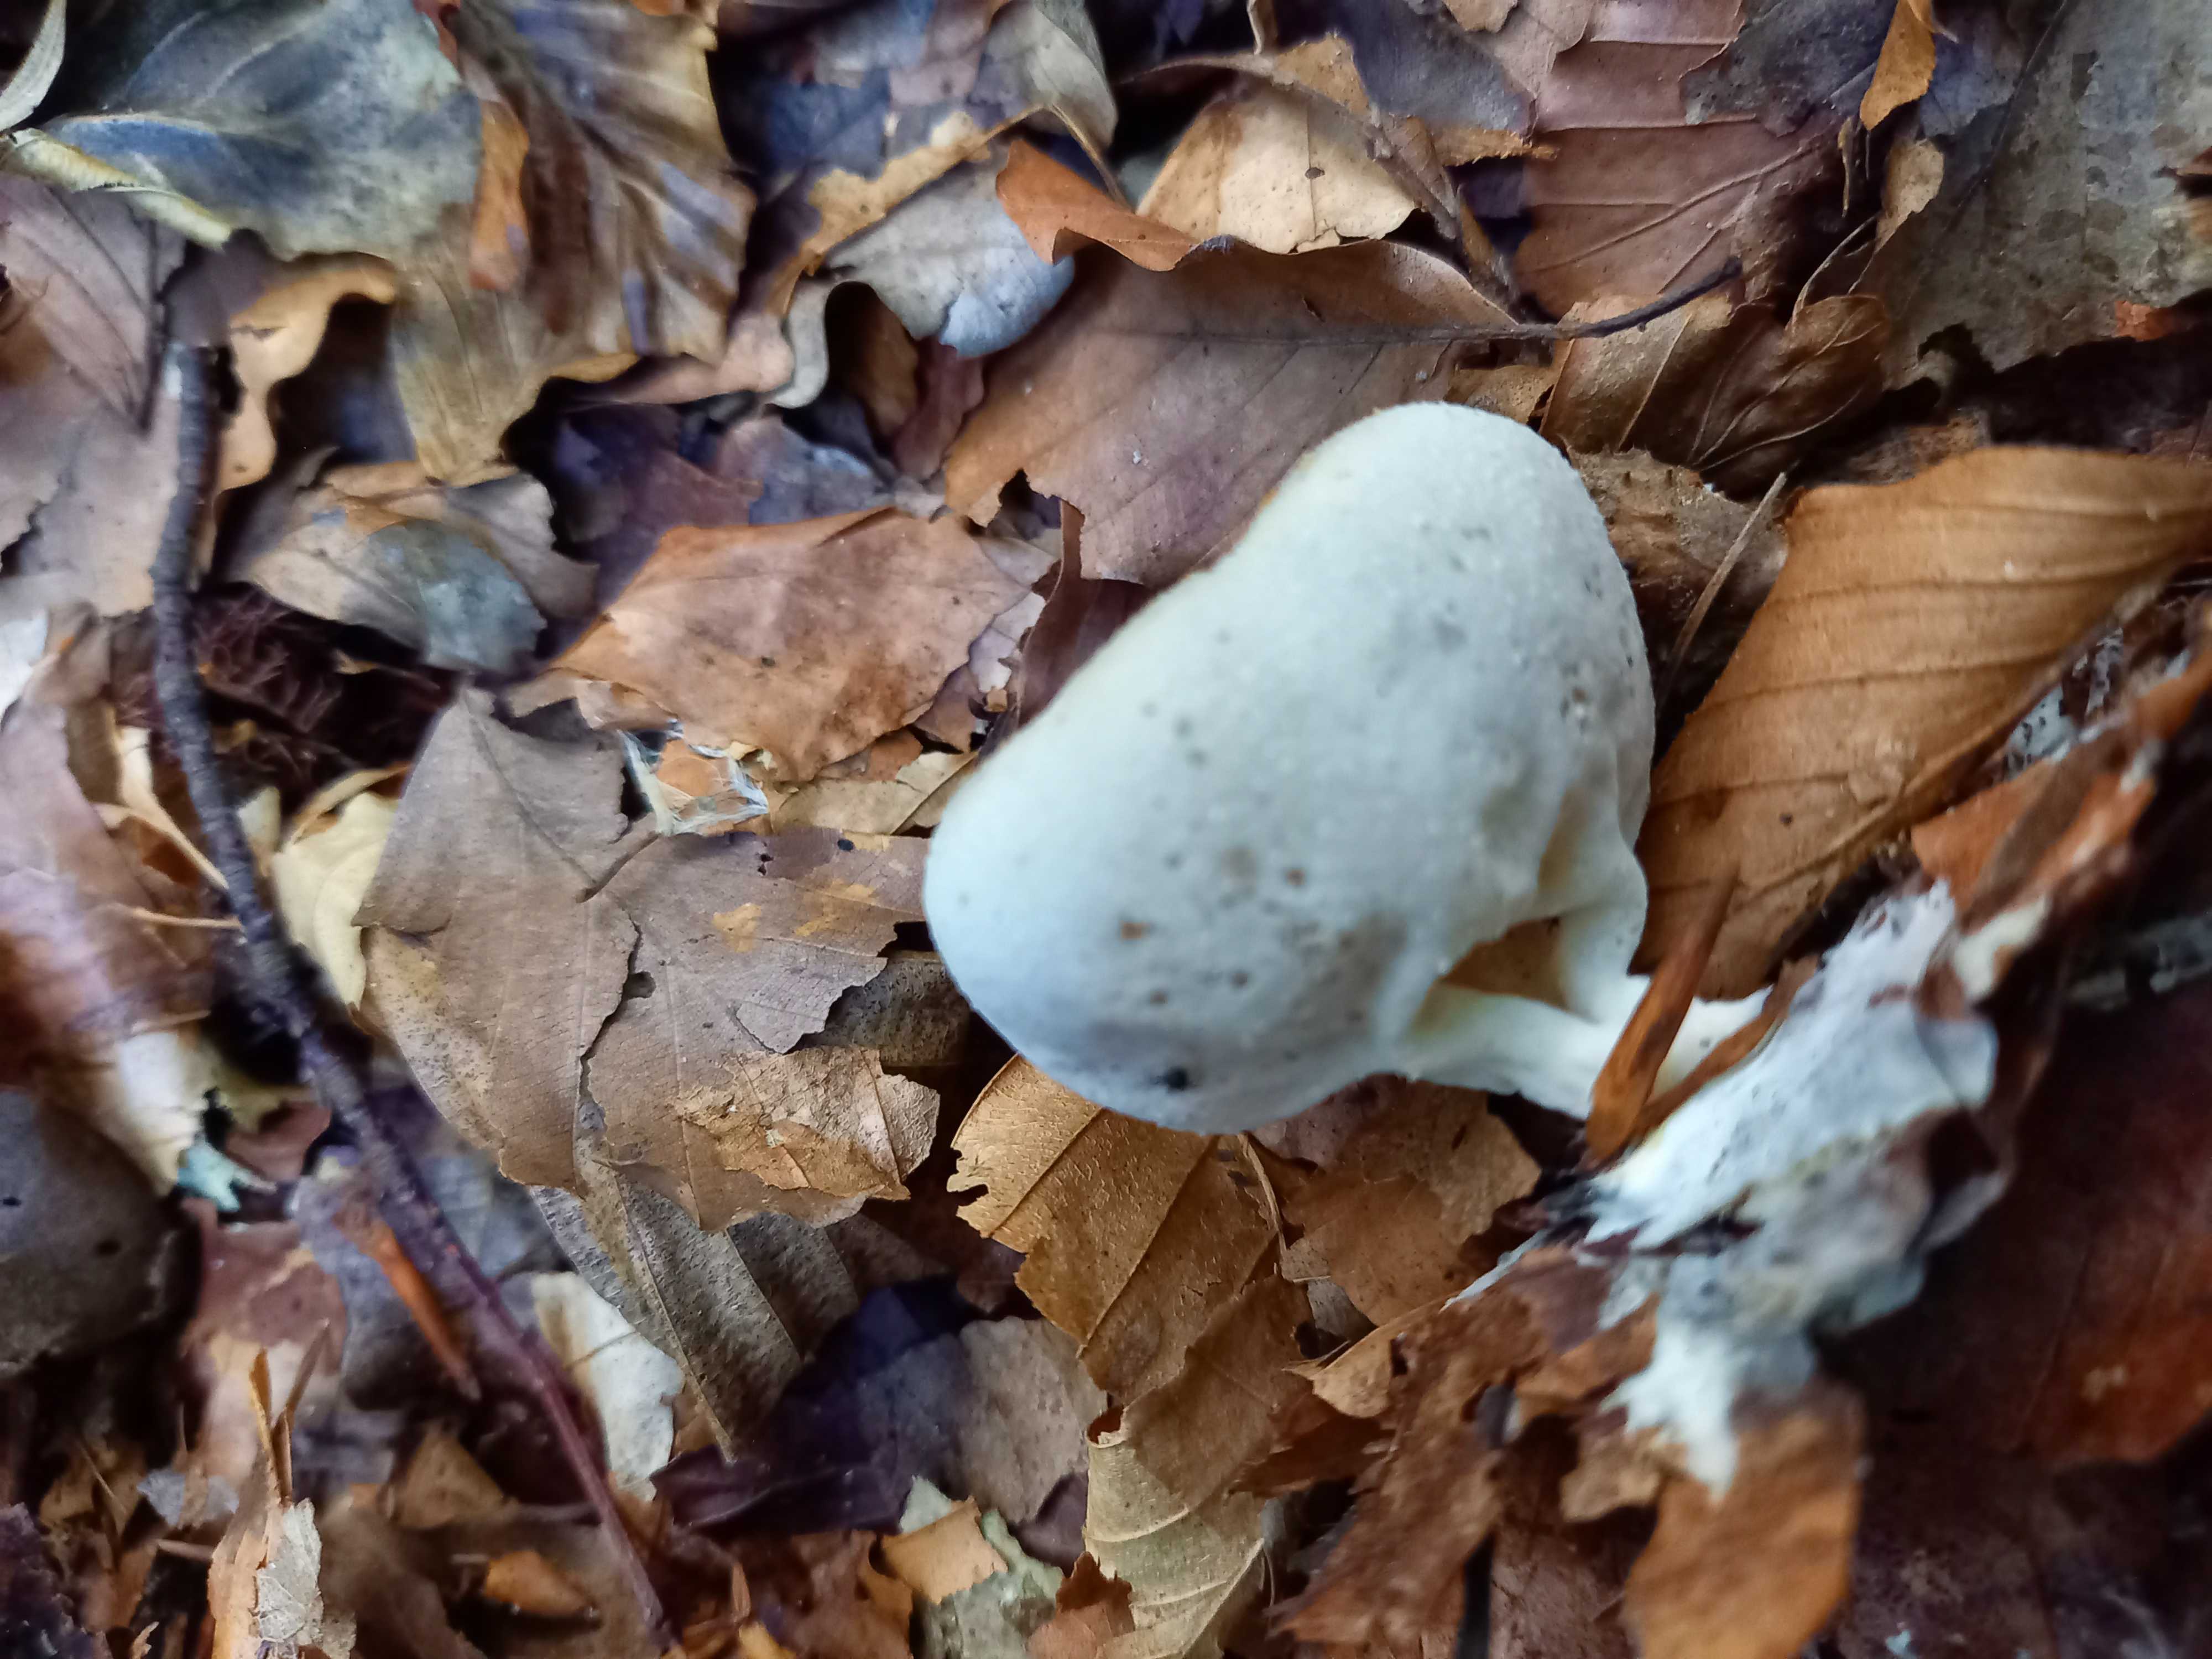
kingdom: Fungi
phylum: Ascomycota
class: Pezizomycetes
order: Pezizales
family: Pezizaceae
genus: Peziza
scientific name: Peziza
